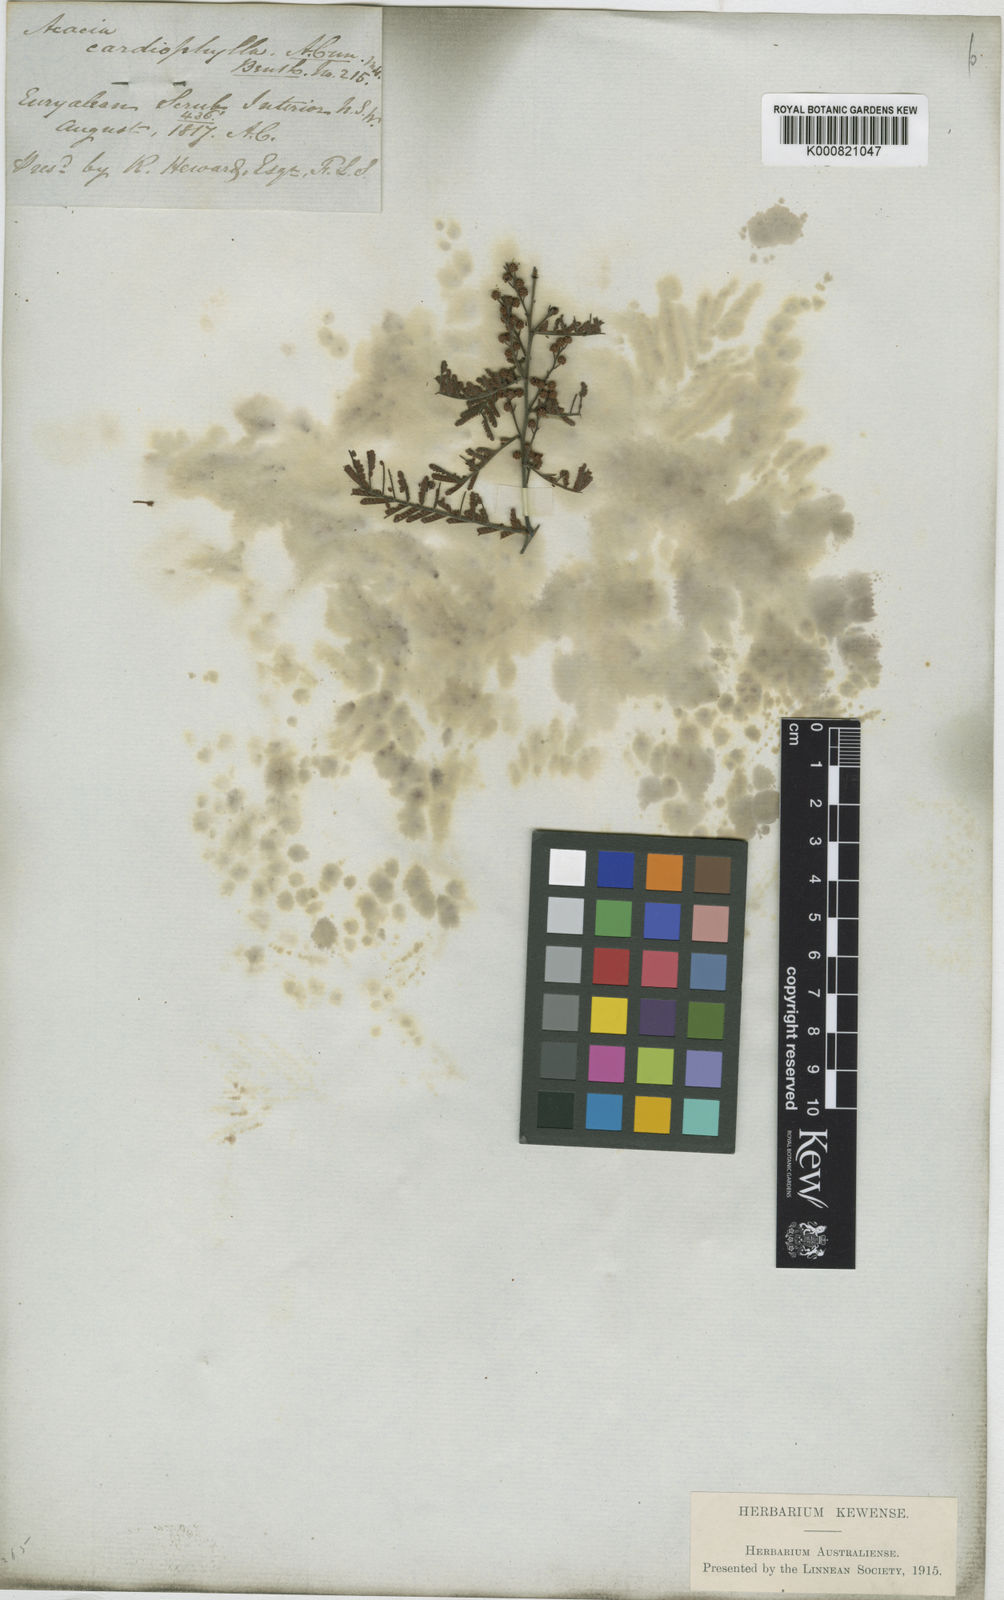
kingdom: Plantae
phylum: Tracheophyta
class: Magnoliopsida
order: Fabales
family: Fabaceae
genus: Acacia
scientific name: Acacia cardiophylla
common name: Wyalong wattle
